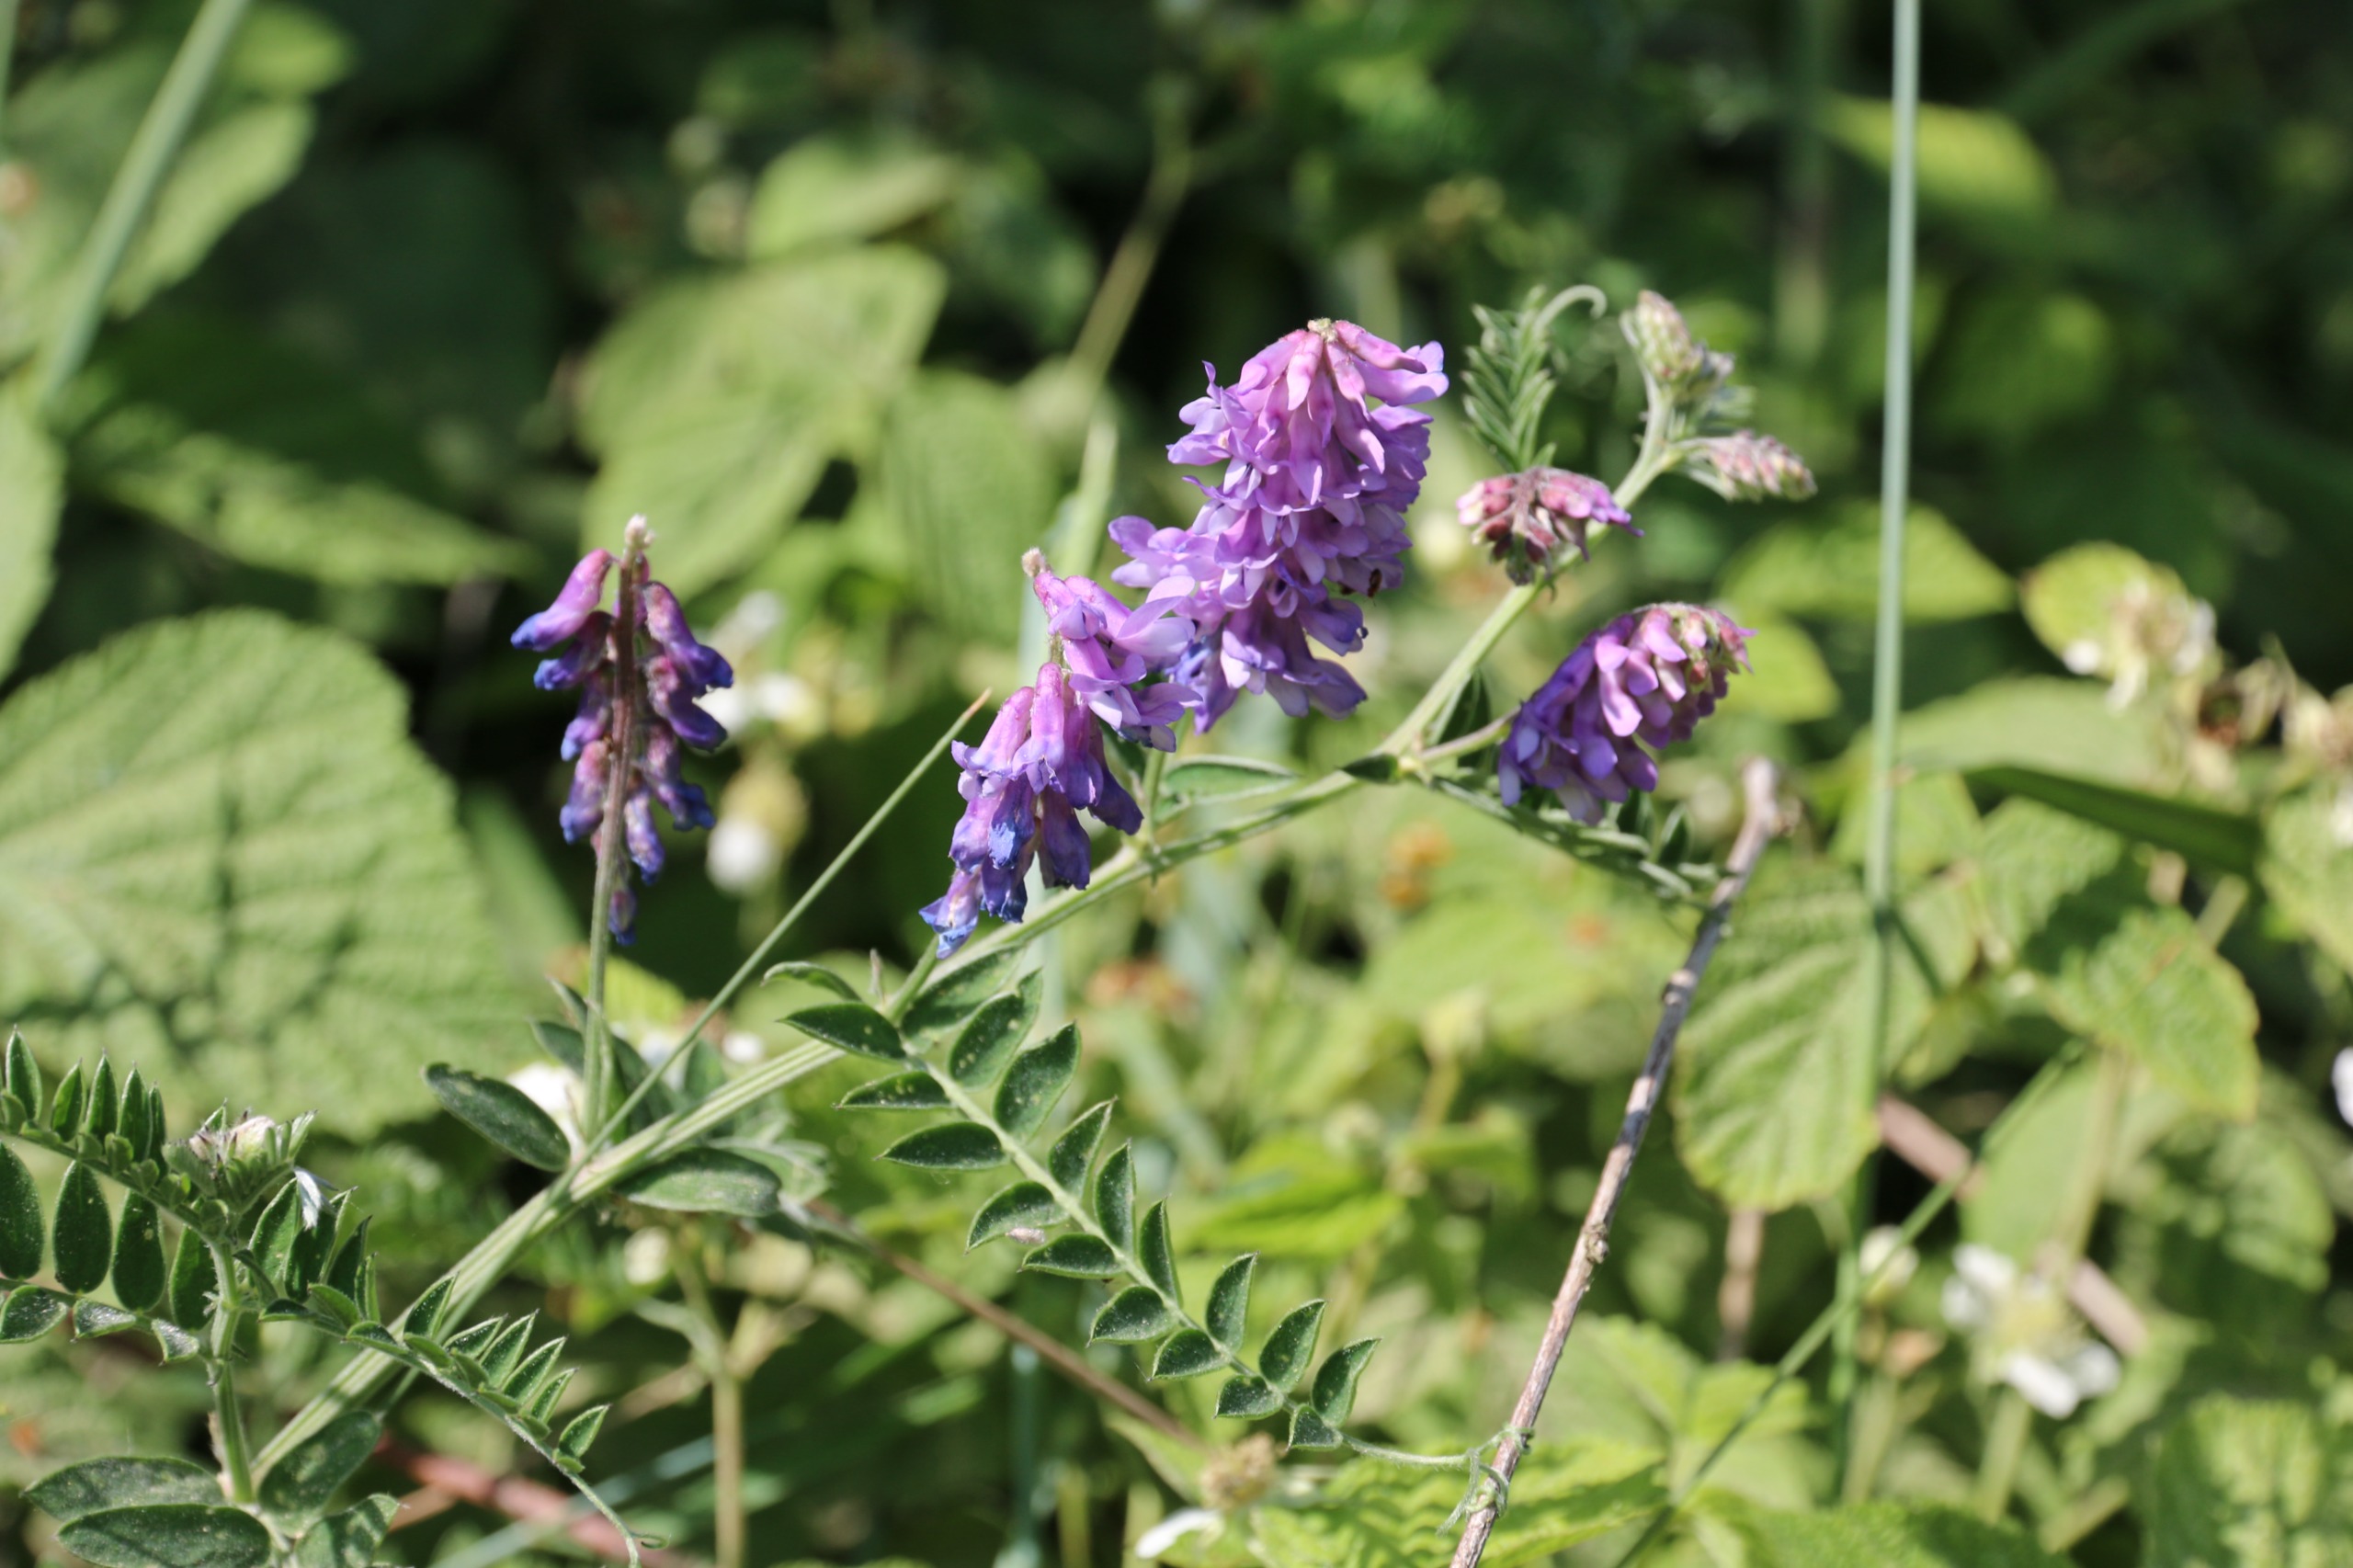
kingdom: Plantae
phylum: Tracheophyta
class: Magnoliopsida
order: Fabales
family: Fabaceae
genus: Vicia
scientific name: Vicia cracca
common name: Muse-vikke
